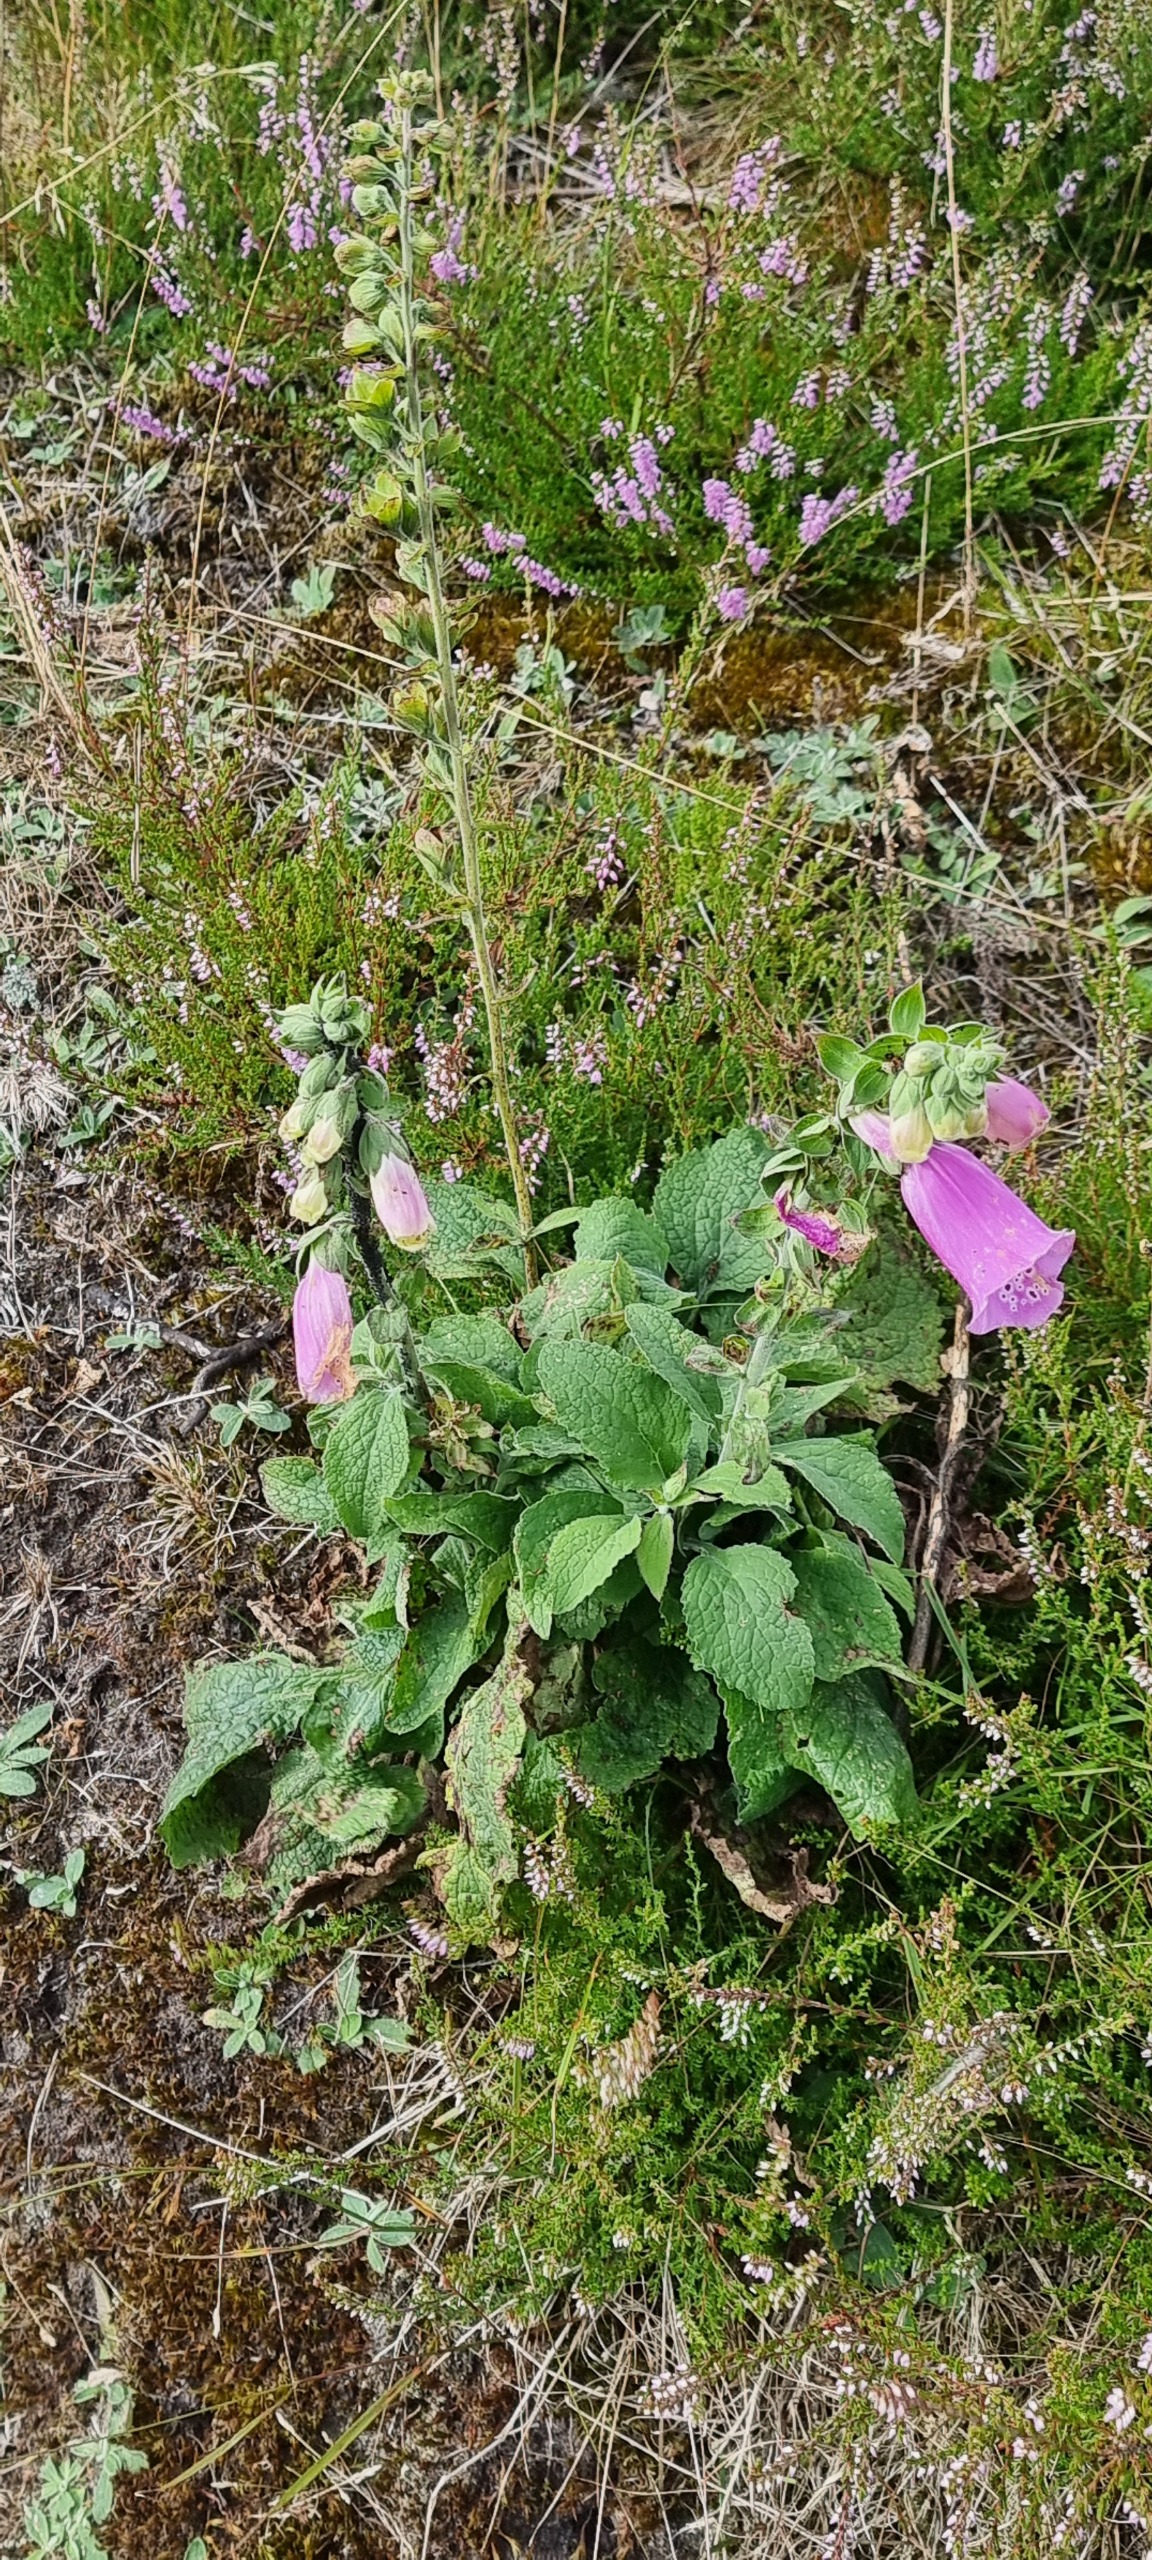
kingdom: Plantae
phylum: Tracheophyta
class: Magnoliopsida
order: Lamiales
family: Plantaginaceae
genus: Digitalis
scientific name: Digitalis purpurea
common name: Almindelig fingerbøl
